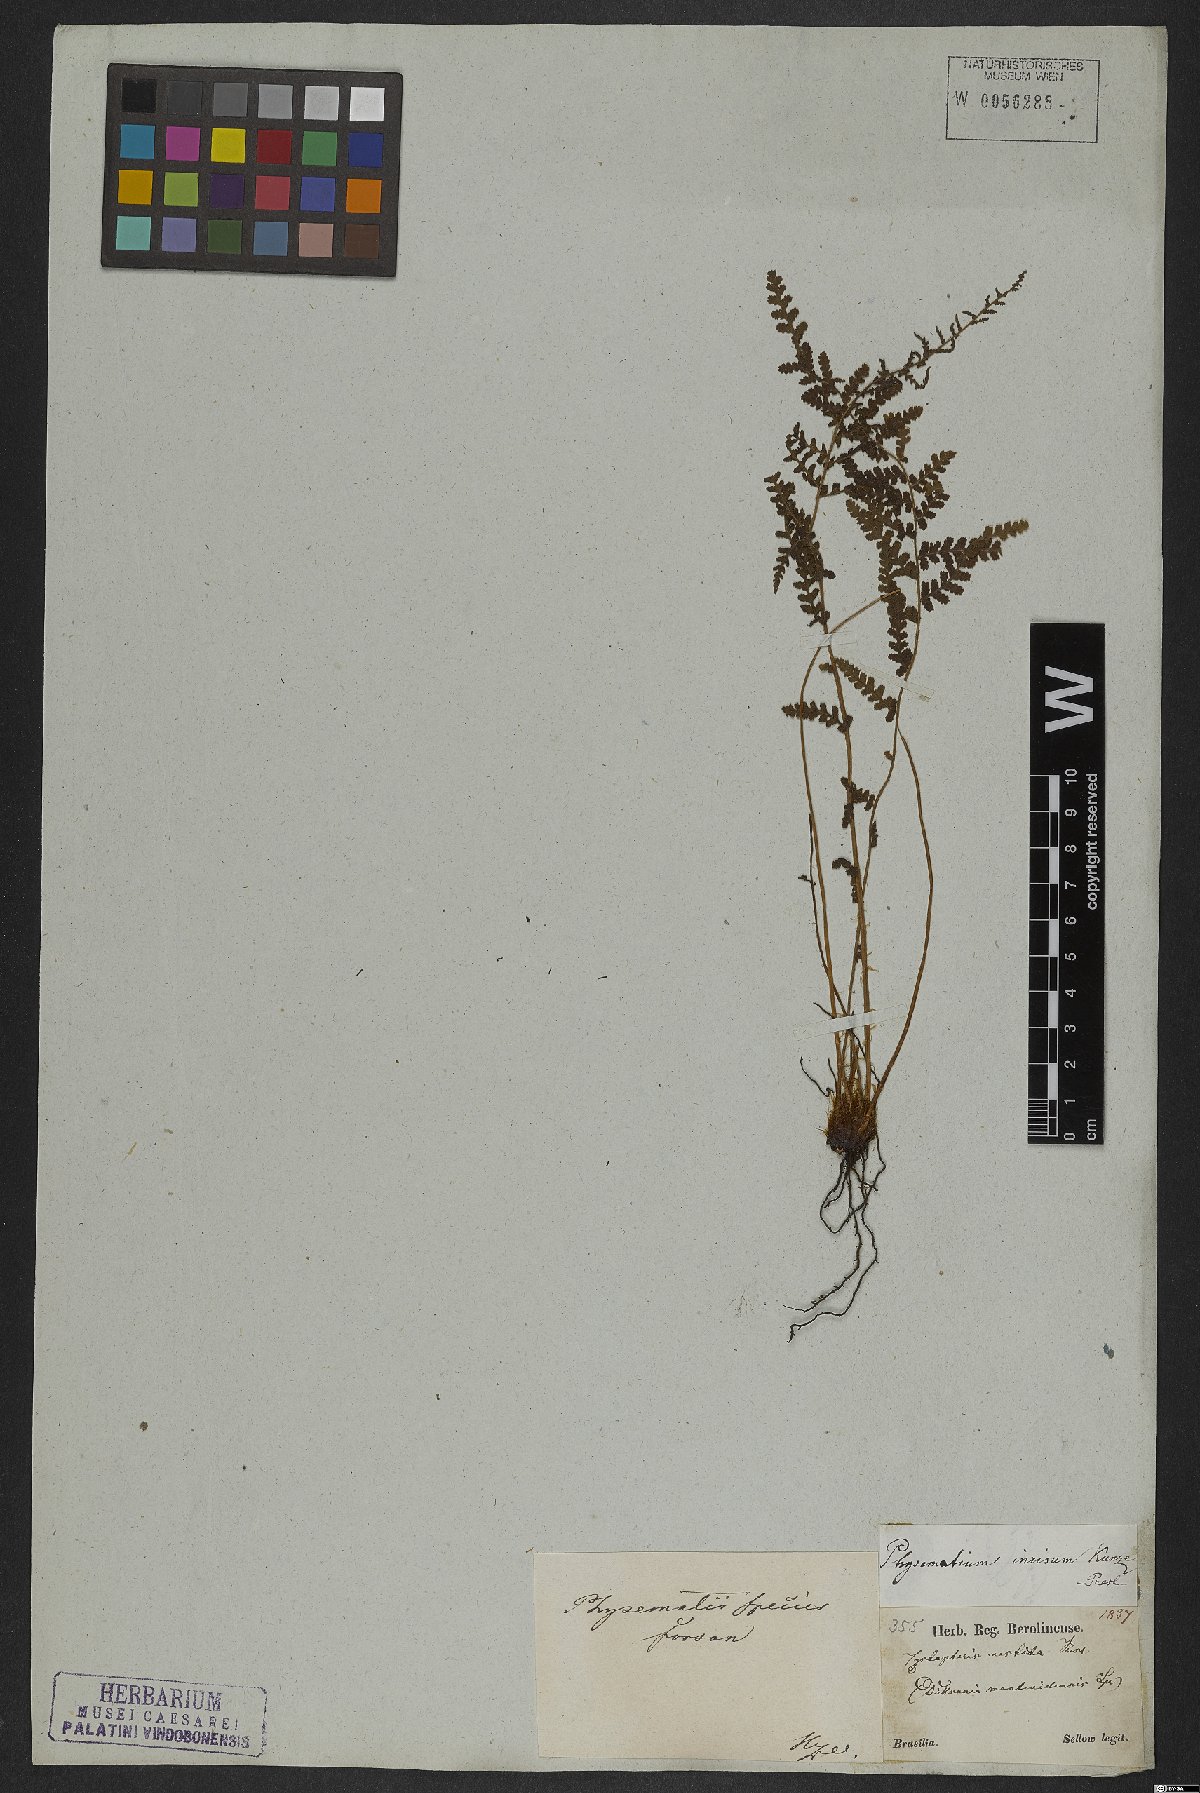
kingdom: Plantae
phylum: Tracheophyta
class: Polypodiopsida
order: Polypodiales
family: Woodsiaceae
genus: Physematium
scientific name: Physematium montevidense
